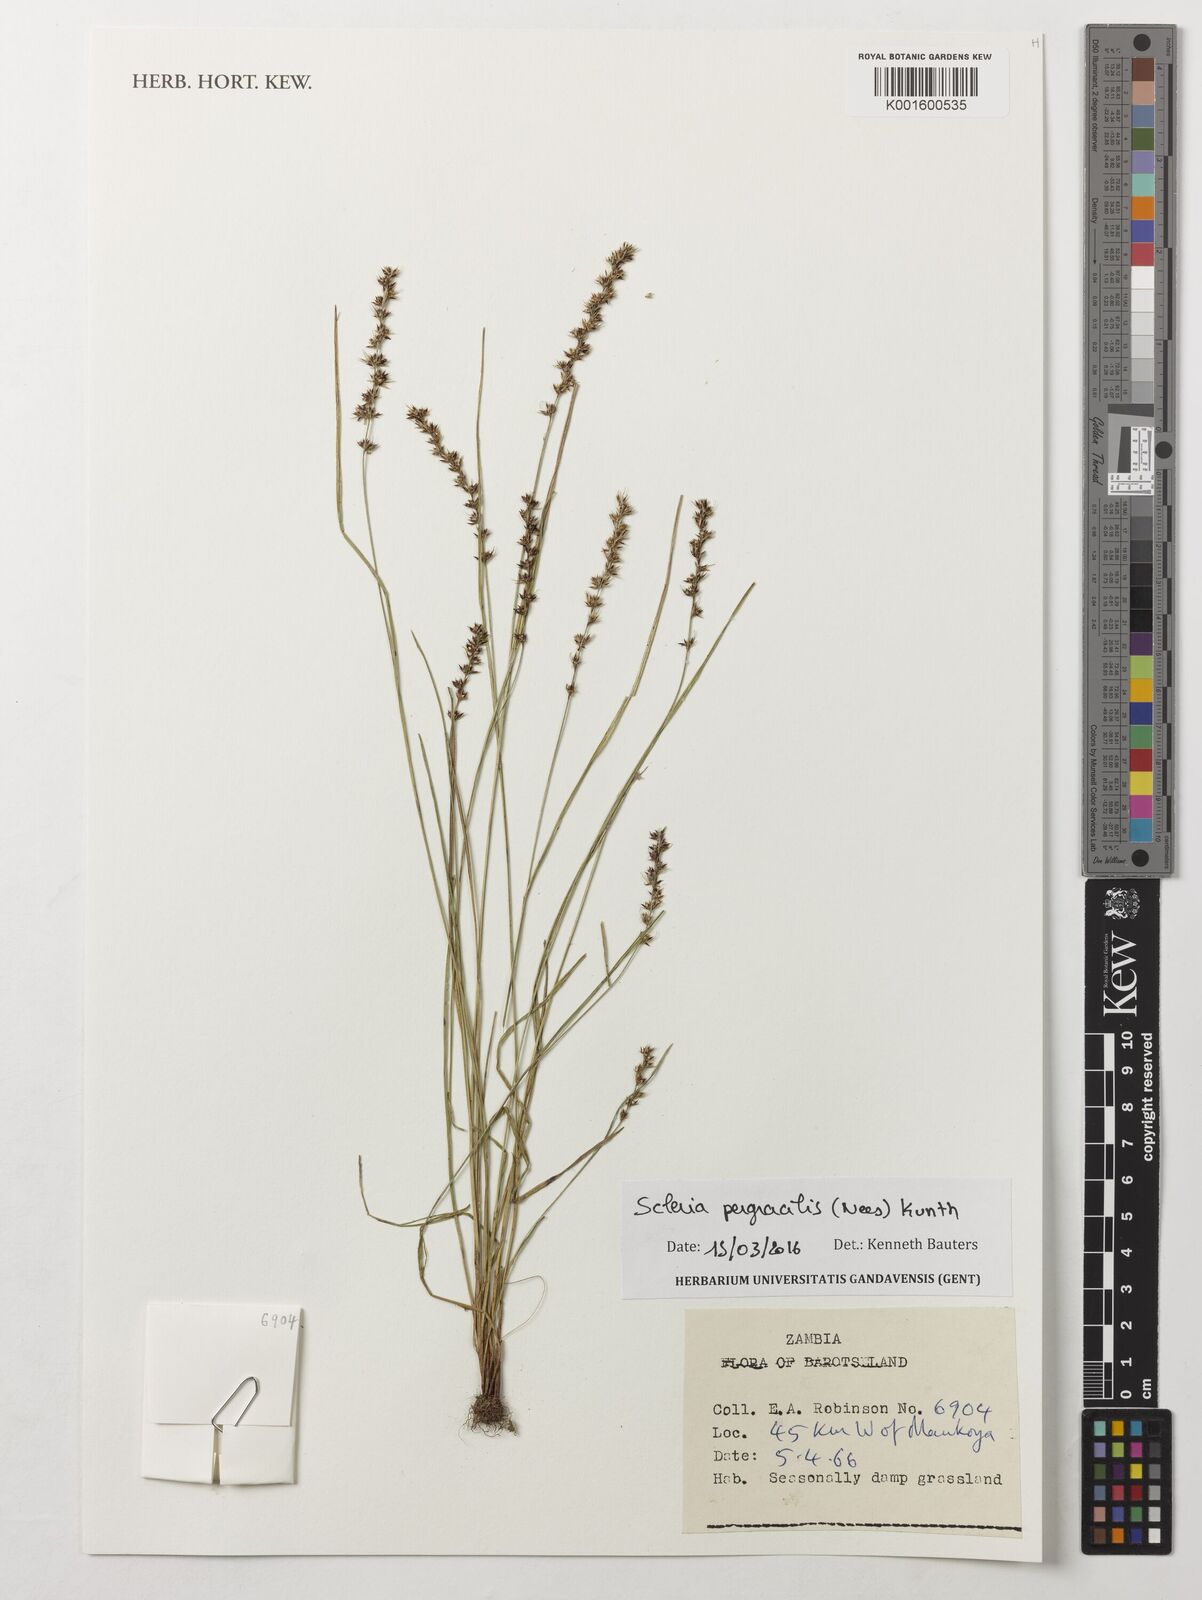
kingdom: Plantae
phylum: Tracheophyta
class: Liliopsida
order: Poales
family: Cyperaceae
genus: Scleria
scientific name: Scleria pergracilis
